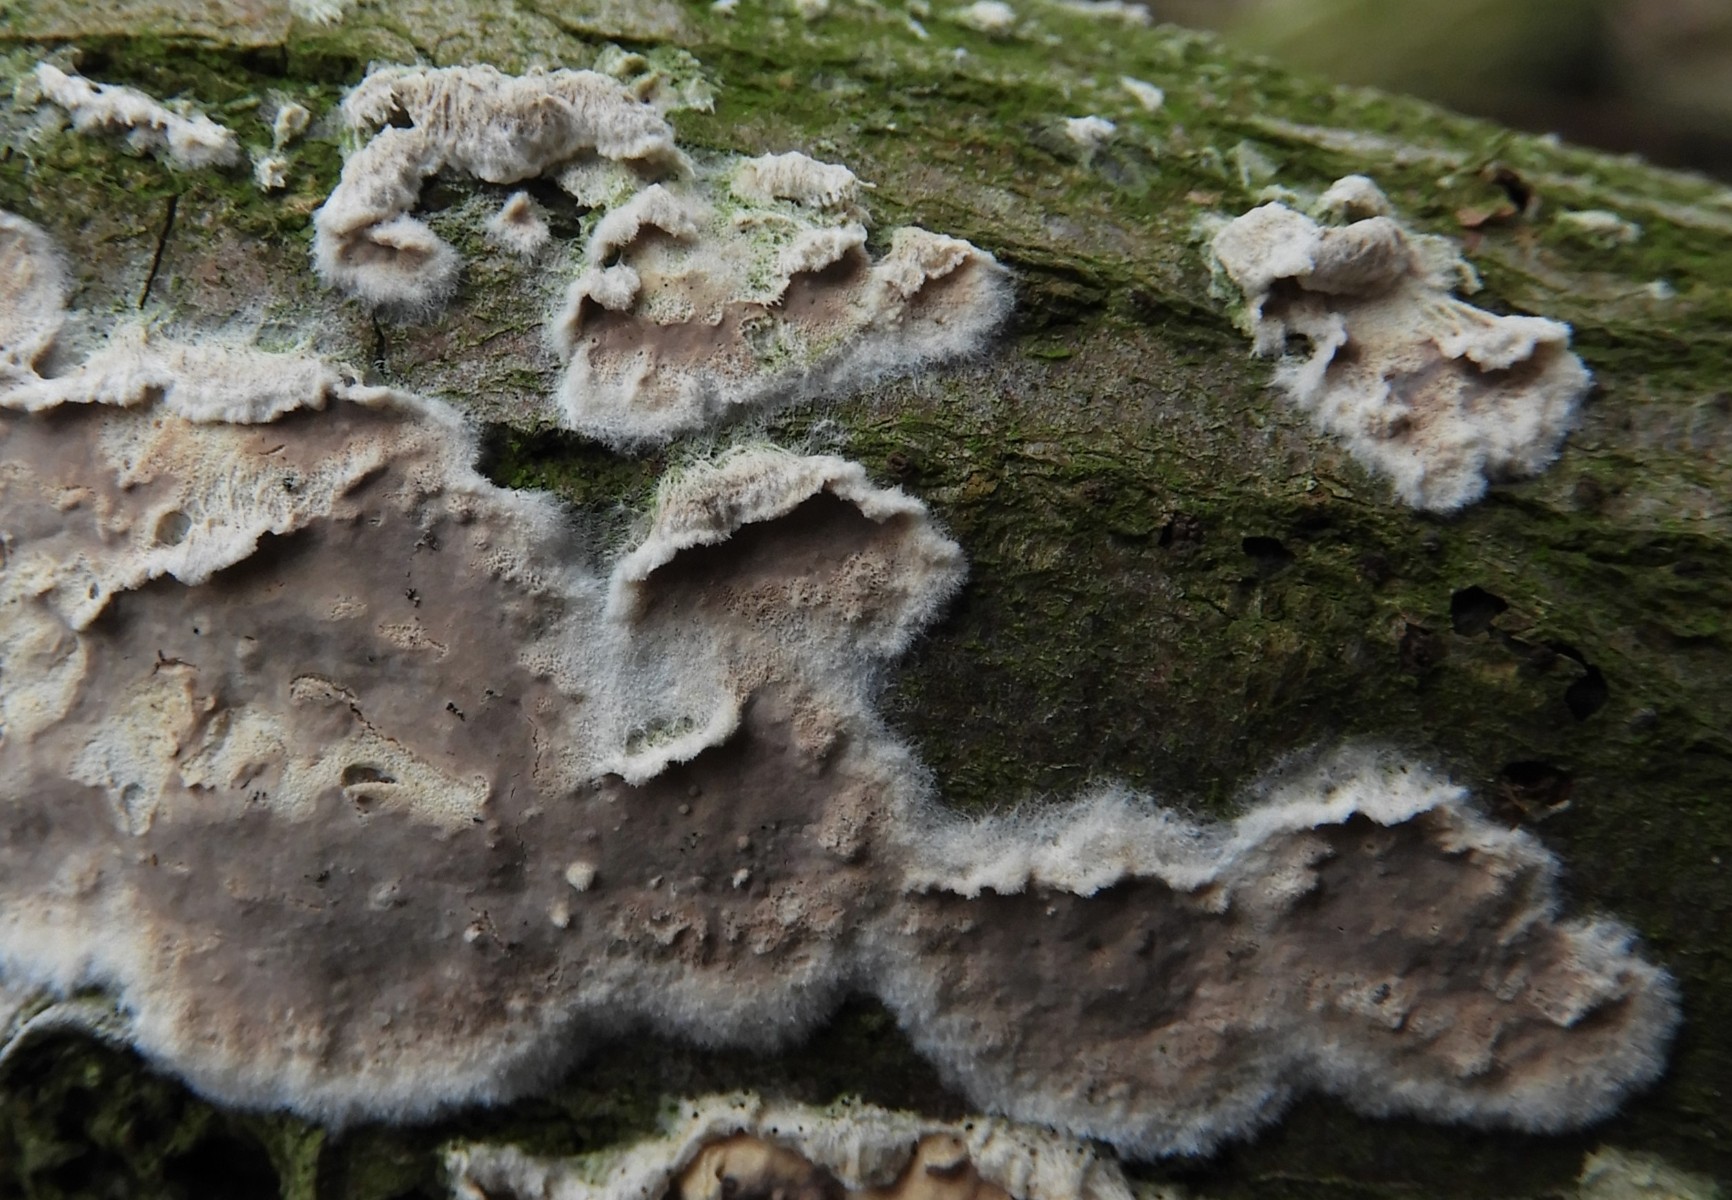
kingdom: Fungi
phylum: Basidiomycota
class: Agaricomycetes
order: Agaricales
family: Physalacriaceae
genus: Cylindrobasidium
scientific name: Cylindrobasidium evolvens
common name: sprækkehinde
